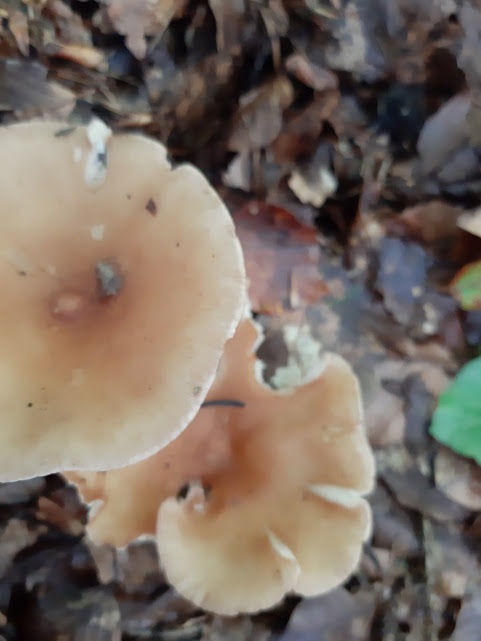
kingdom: Fungi
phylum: Basidiomycota
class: Agaricomycetes
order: Agaricales
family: Tricholomataceae
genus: Infundibulicybe
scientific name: Infundibulicybe gibba
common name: almindelig tragthat
